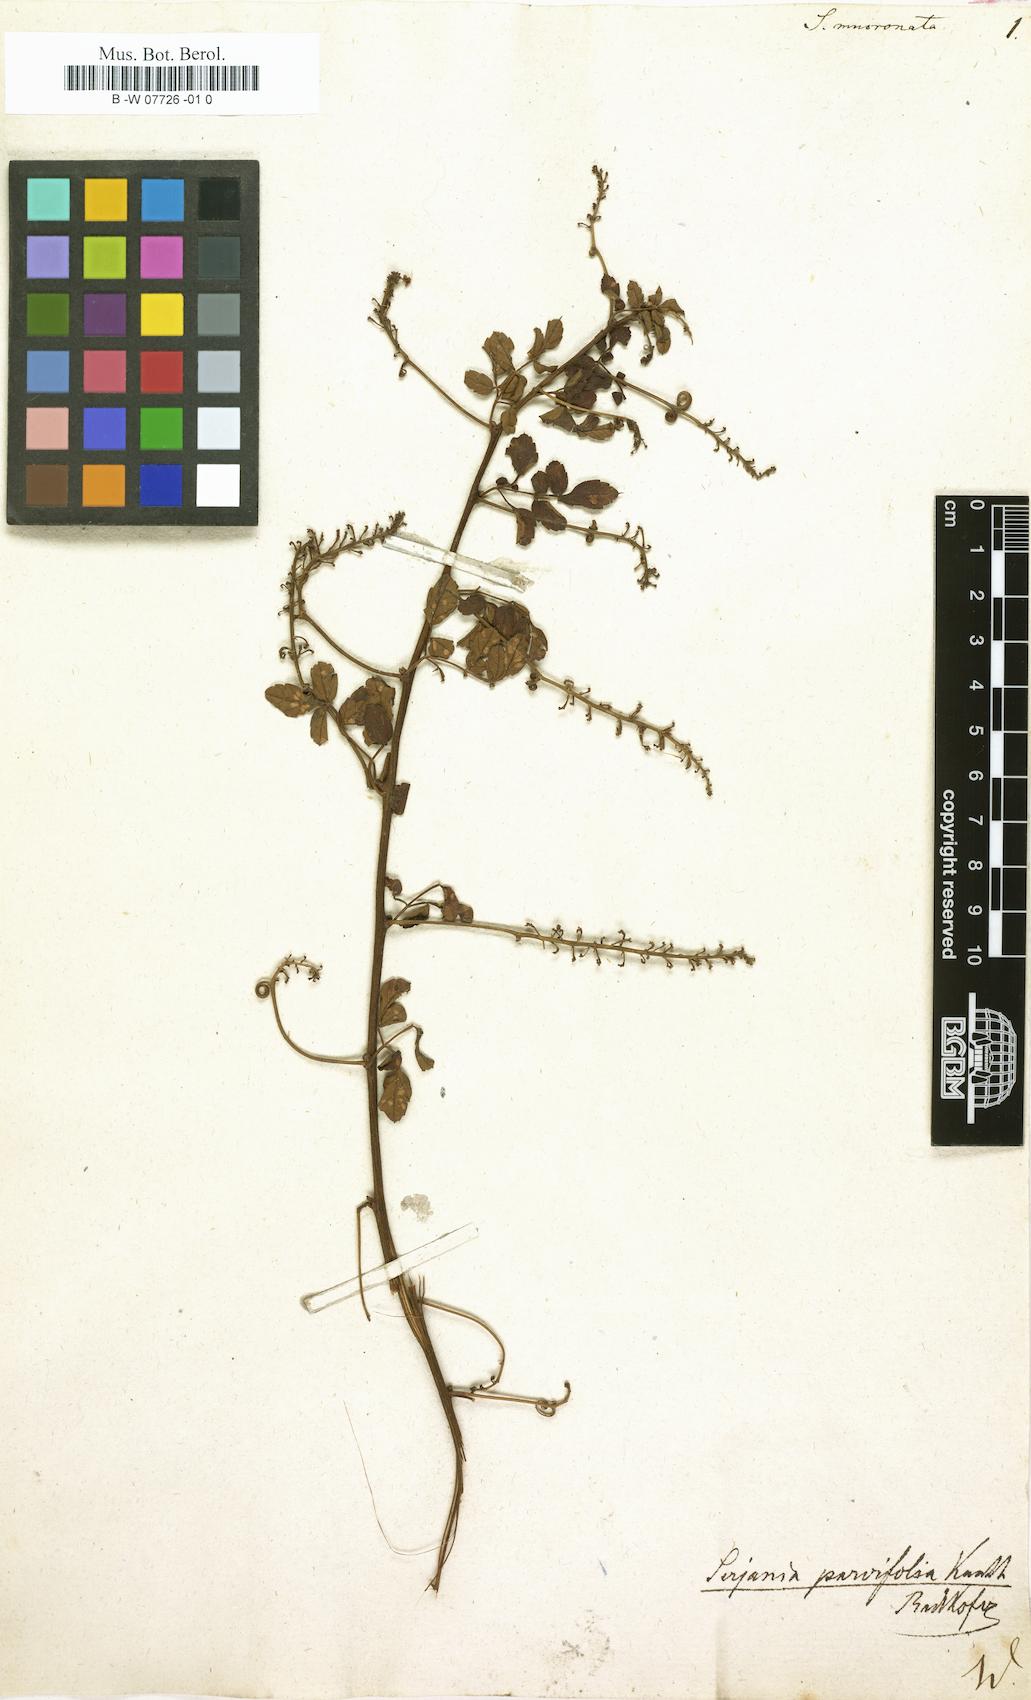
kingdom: Plantae
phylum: Tracheophyta
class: Magnoliopsida
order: Sapindales
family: Sapindaceae
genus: Serjania
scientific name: Serjania mucronulata
